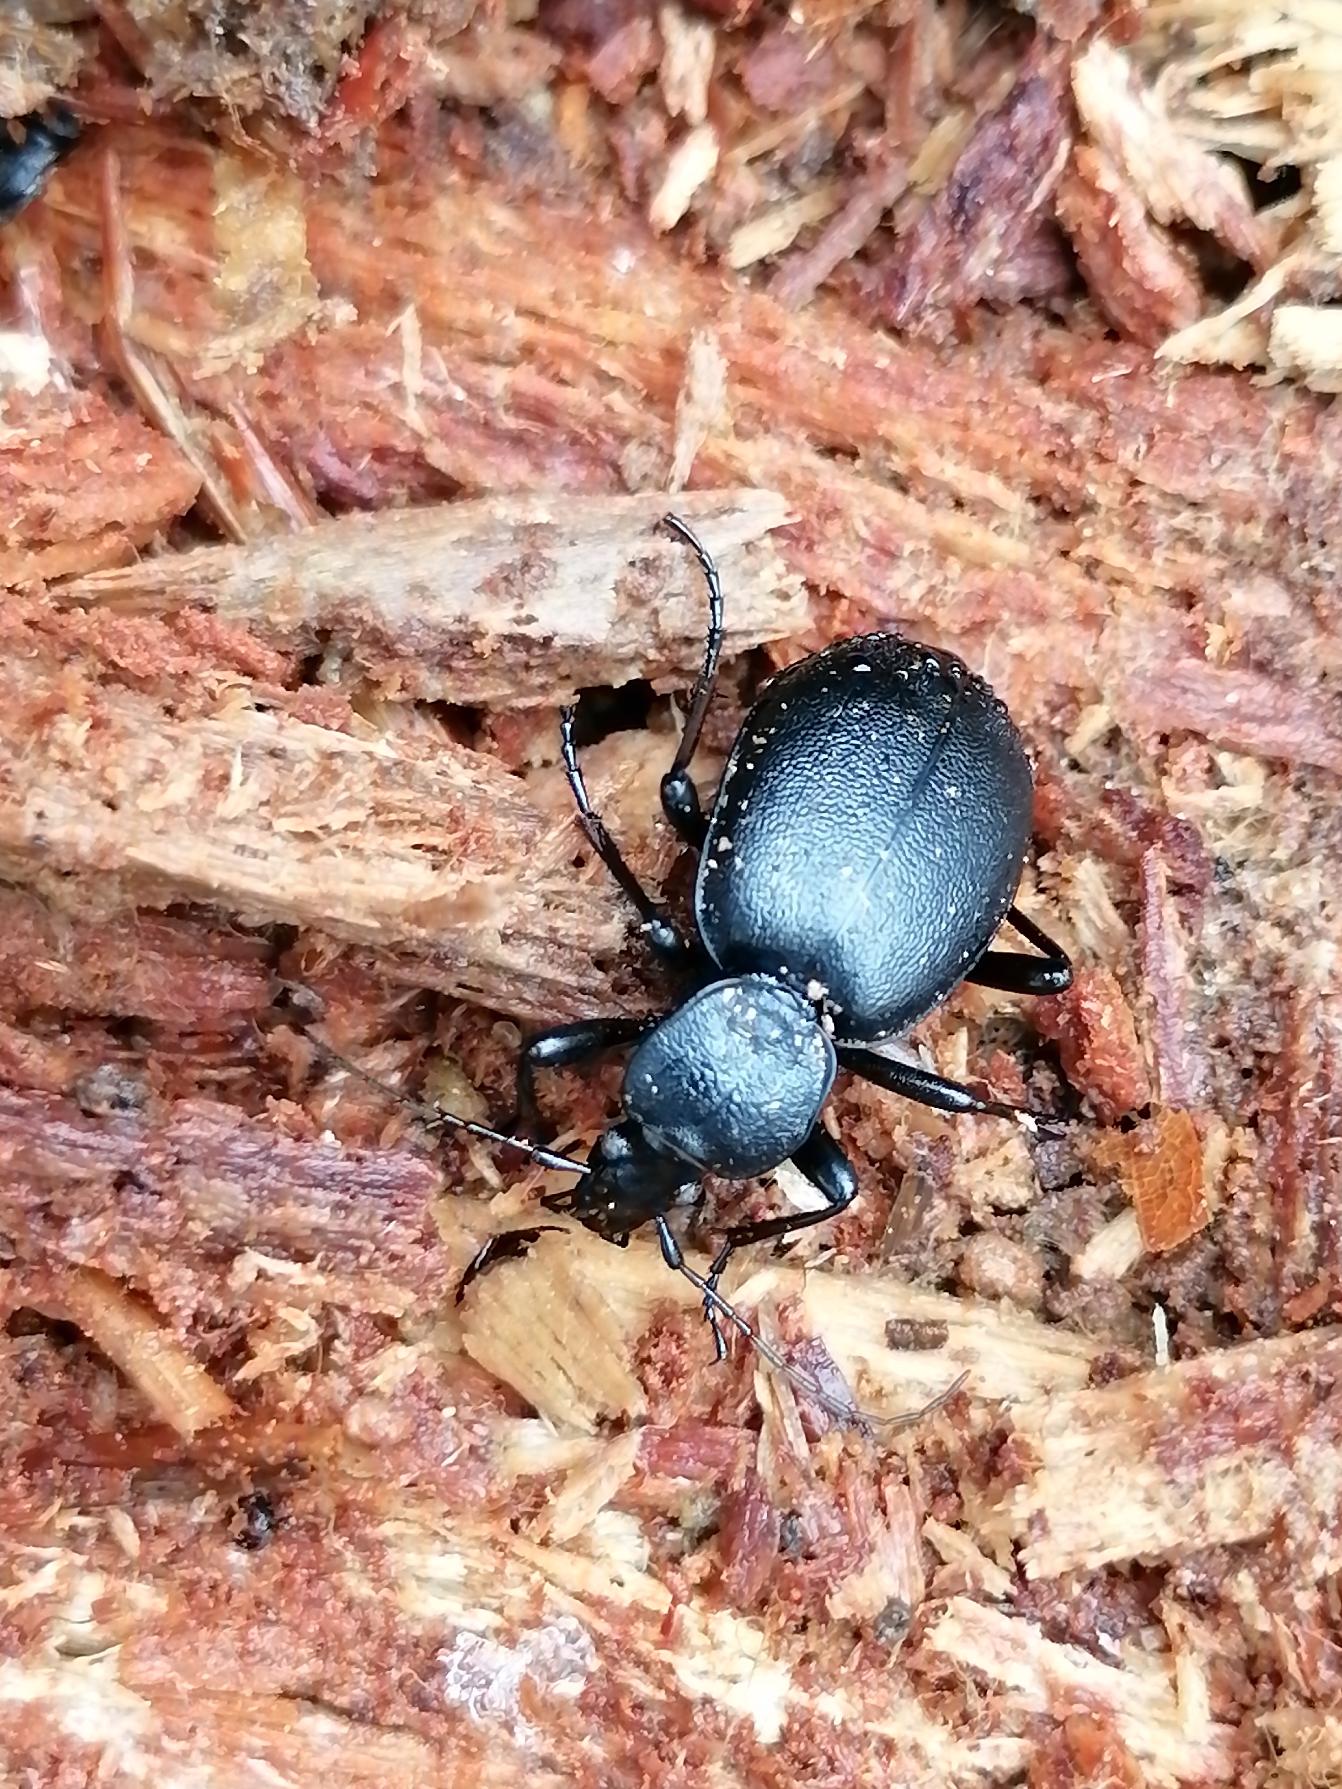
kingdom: Animalia
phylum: Arthropoda
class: Insecta
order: Coleoptera
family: Carabidae
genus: Cychrus
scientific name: Cychrus caraboides
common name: Sneglerøver
